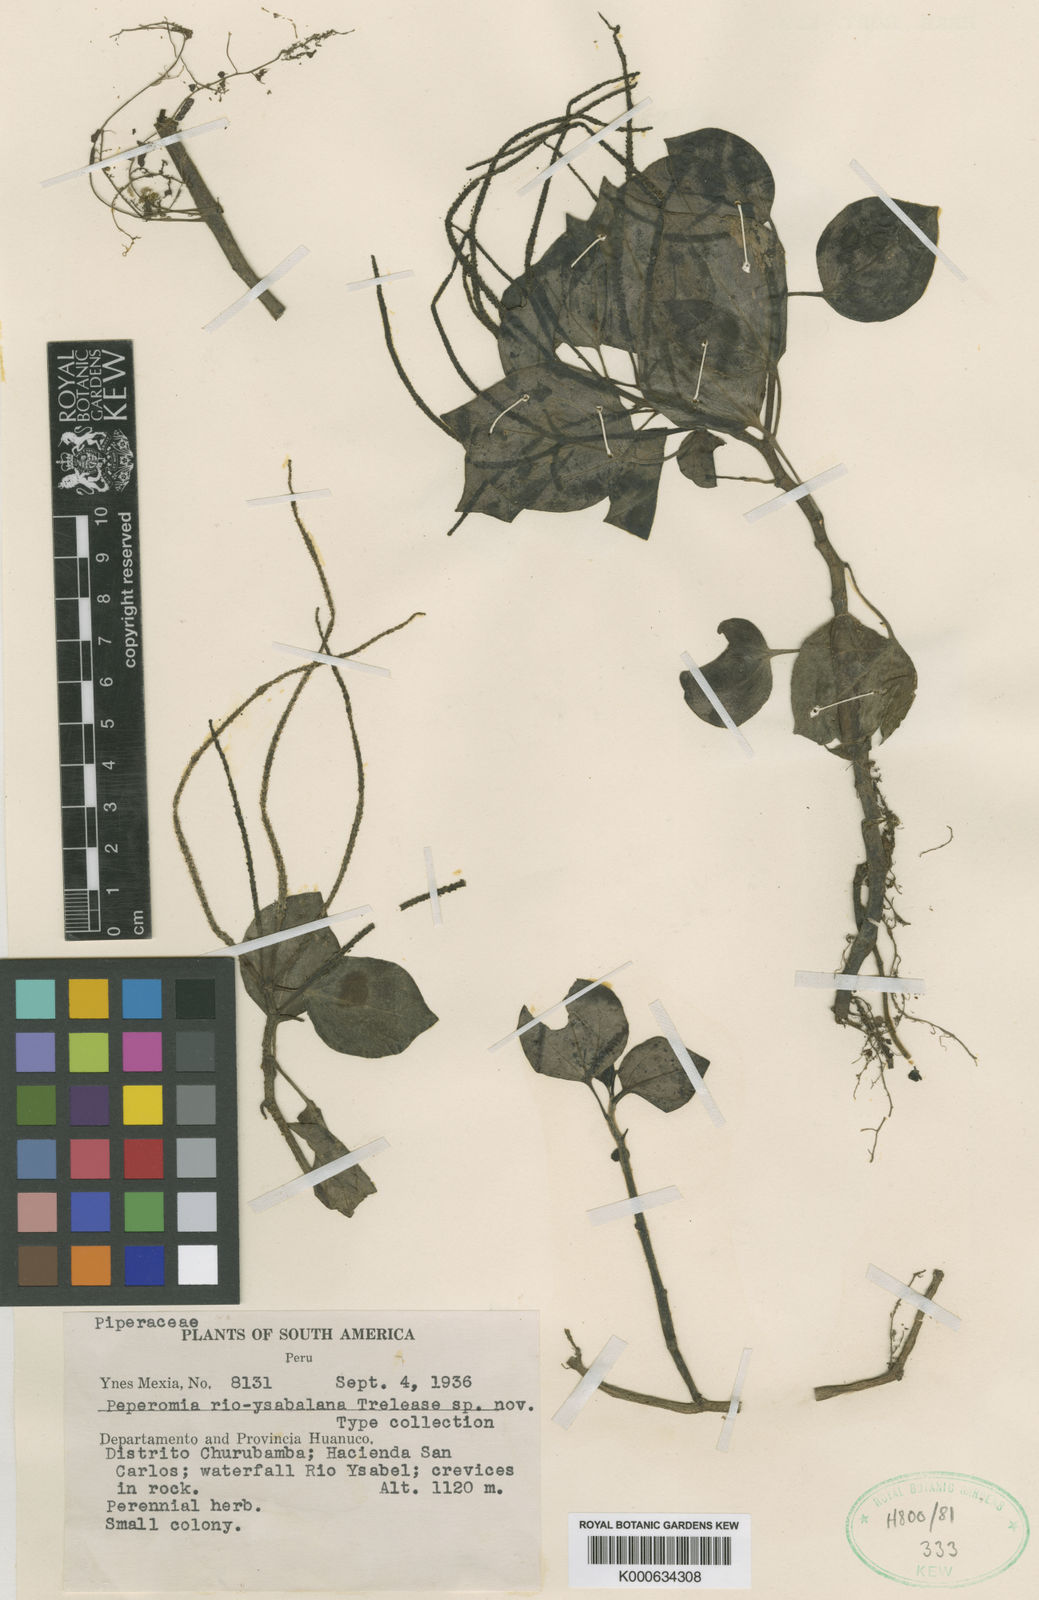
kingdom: Plantae
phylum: Tracheophyta
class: Magnoliopsida
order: Piperales
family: Piperaceae
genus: Peperomia
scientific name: Peperomia
